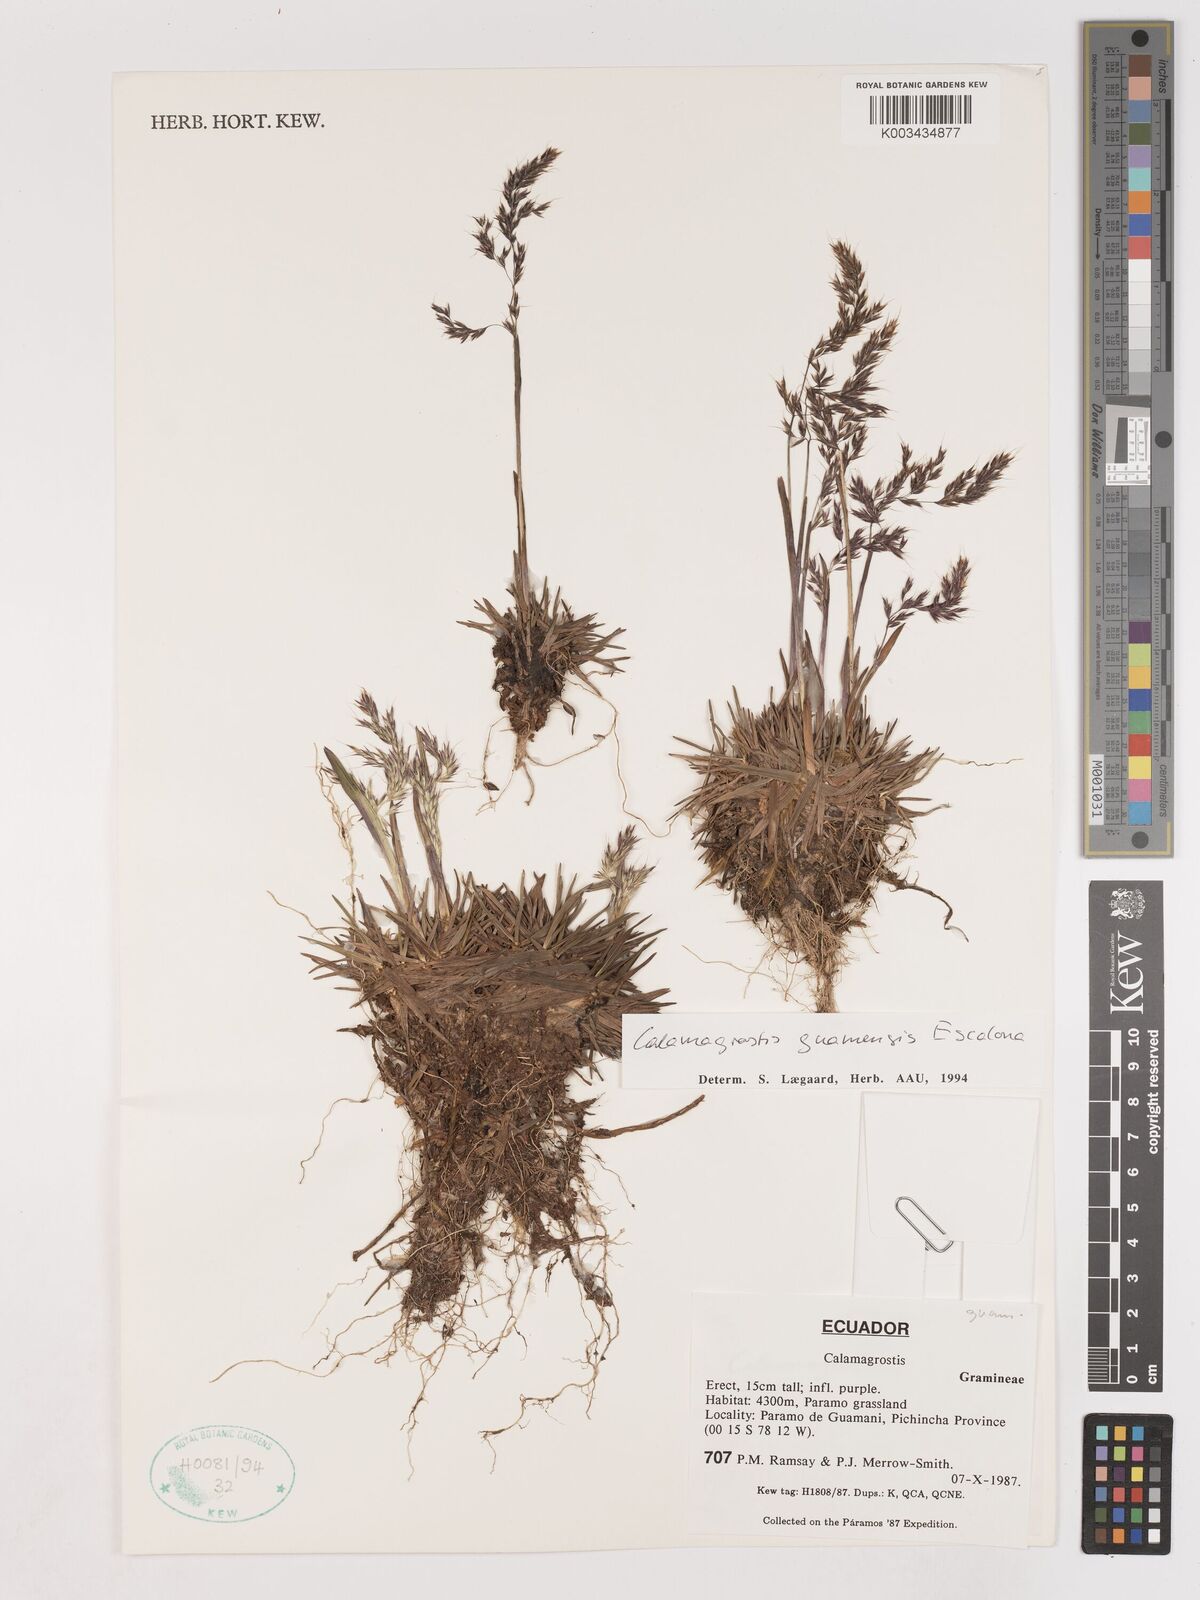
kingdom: Plantae
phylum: Tracheophyta
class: Liliopsida
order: Poales
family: Poaceae
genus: Calamagrostis
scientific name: Calamagrostis
